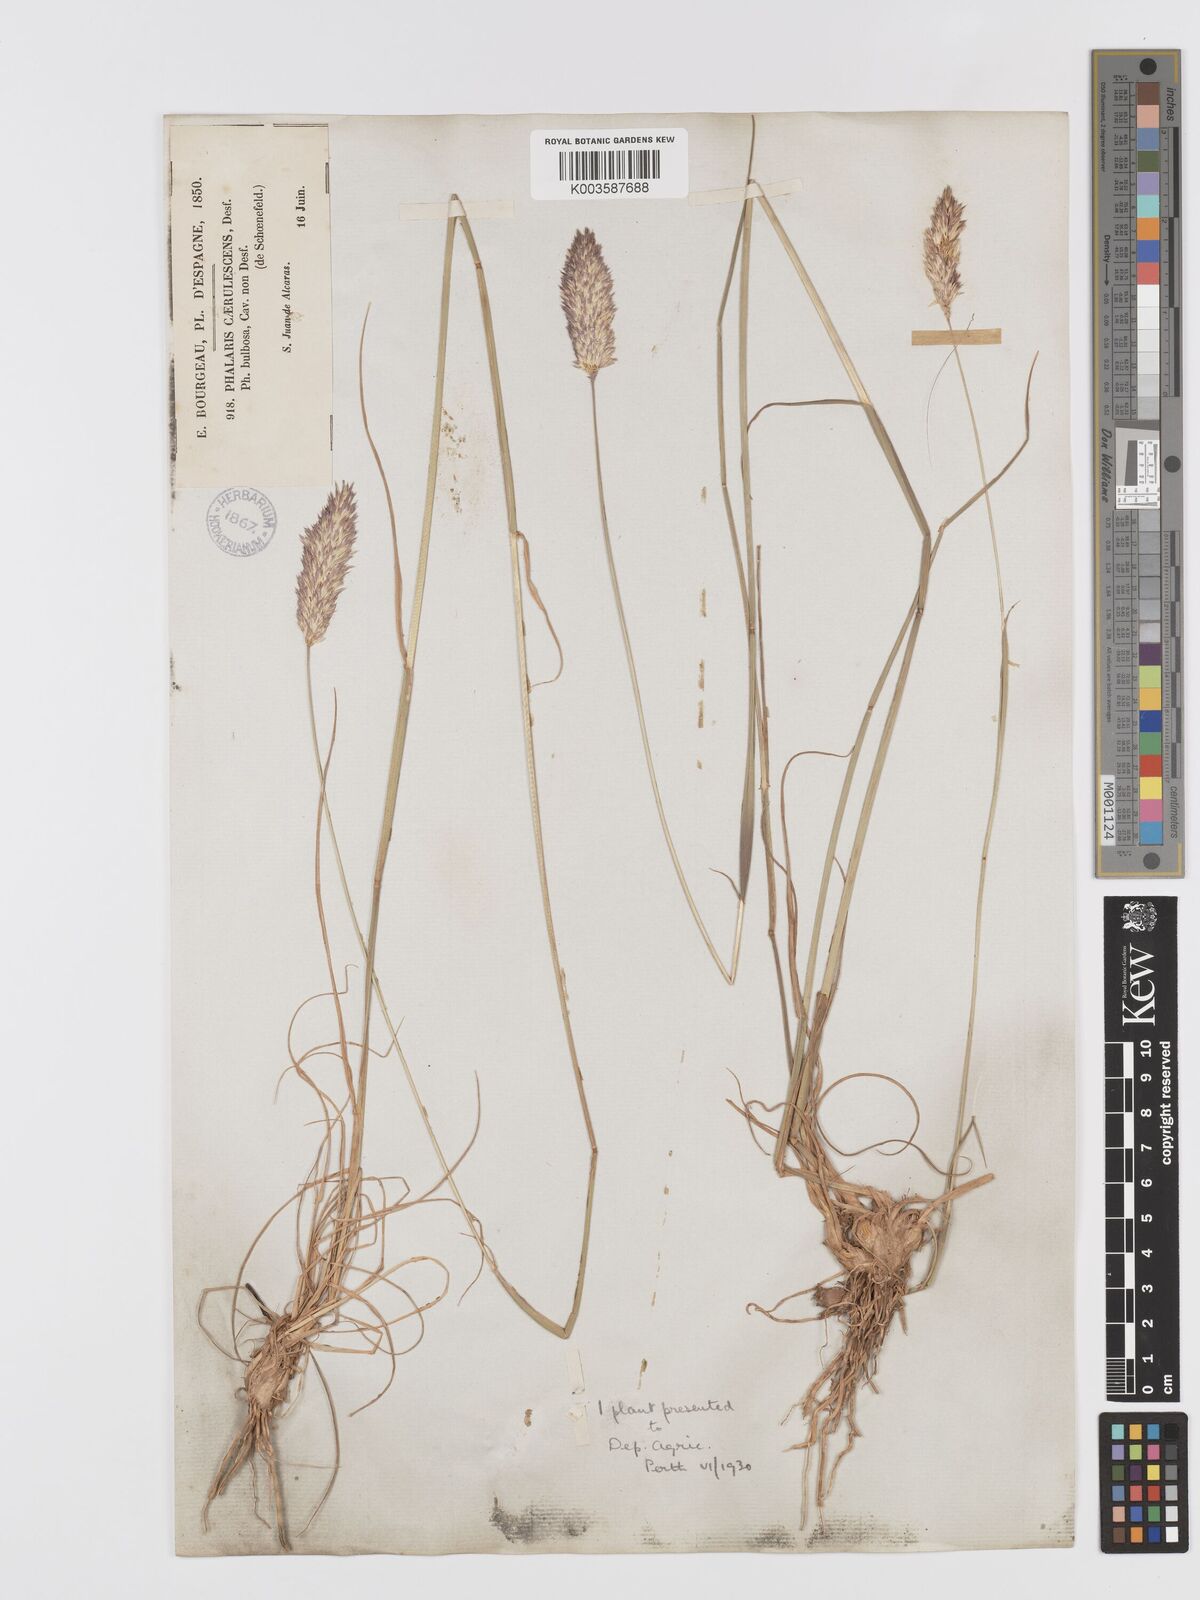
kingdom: Plantae
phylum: Tracheophyta
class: Liliopsida
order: Poales
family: Poaceae
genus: Phalaris
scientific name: Phalaris coerulescens
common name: Sunolgrass
